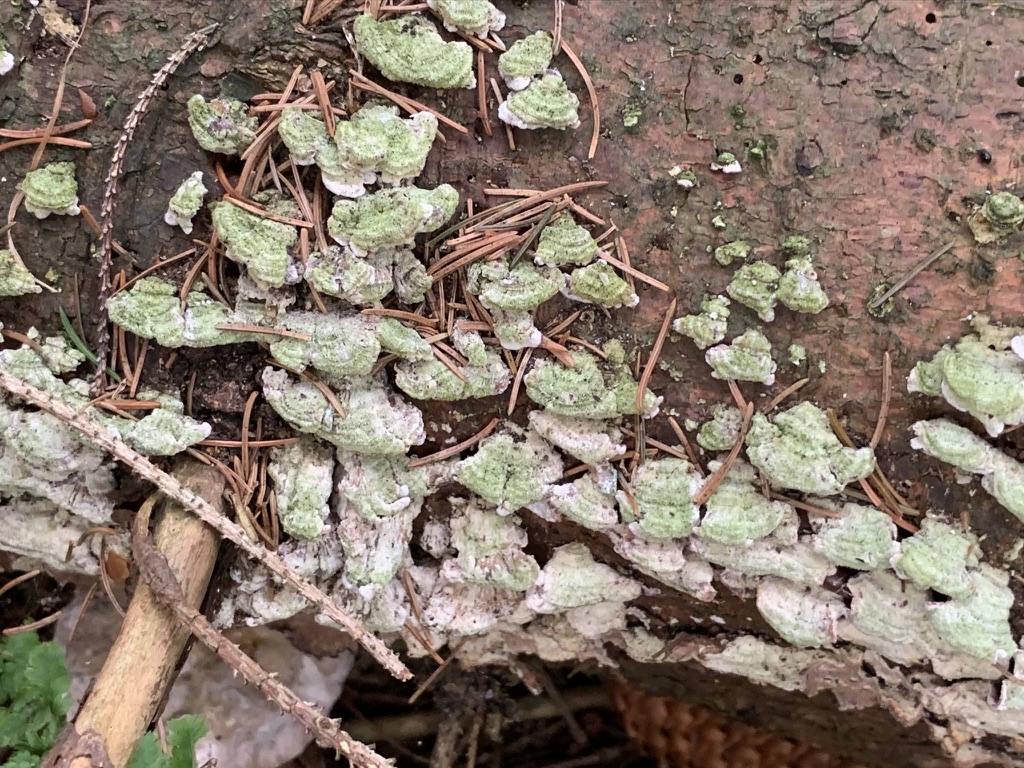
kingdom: Fungi
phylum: Basidiomycota
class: Agaricomycetes
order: Hymenochaetales
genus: Trichaptum
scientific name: Trichaptum abietinum
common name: almindelig violporesvamp
